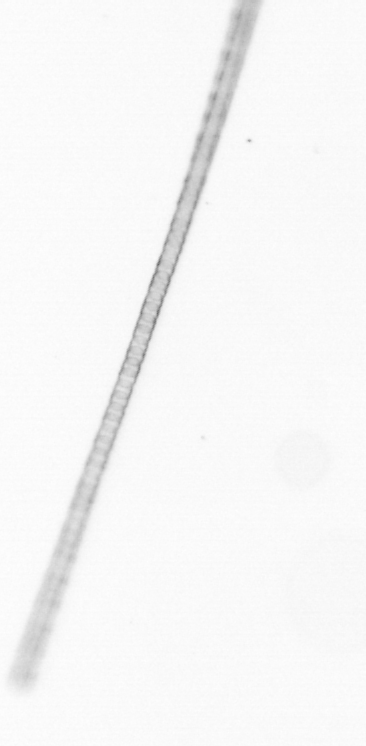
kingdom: Chromista
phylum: Ochrophyta
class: Bacillariophyceae
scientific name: Bacillariophyceae
